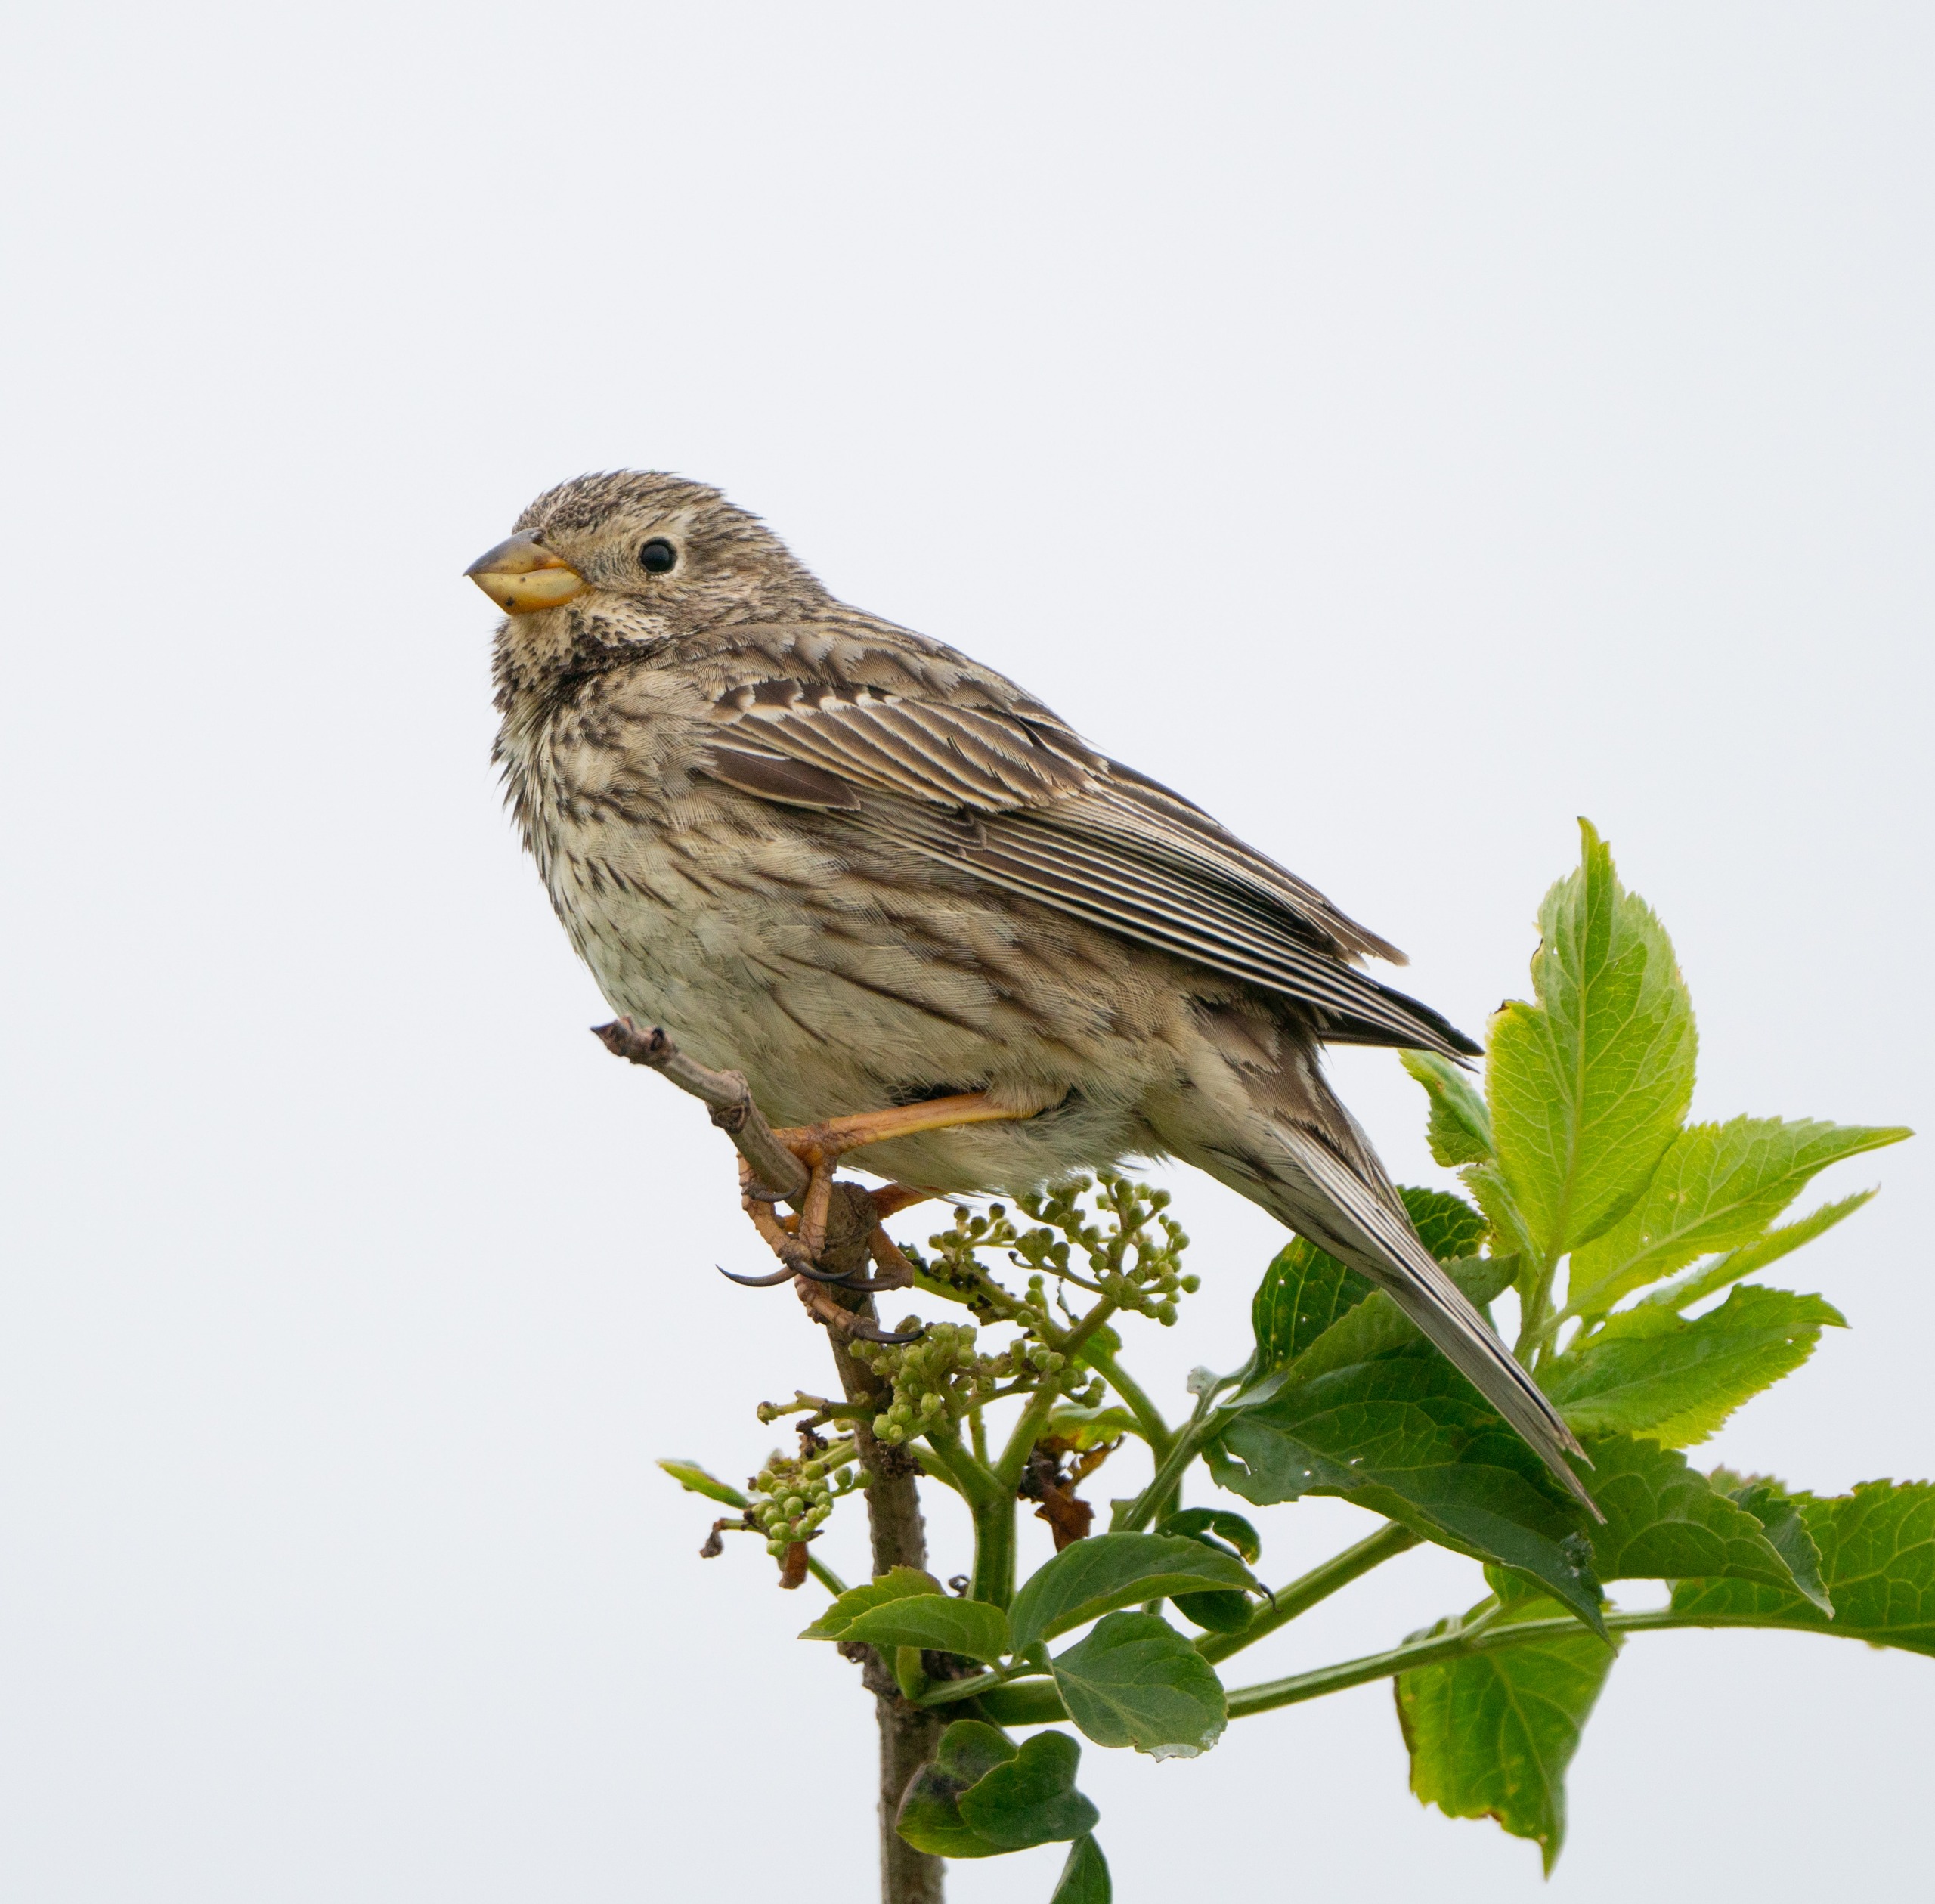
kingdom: Animalia
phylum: Chordata
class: Aves
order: Passeriformes
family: Emberizidae
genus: Emberiza
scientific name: Emberiza calandra
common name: Bomlærke
